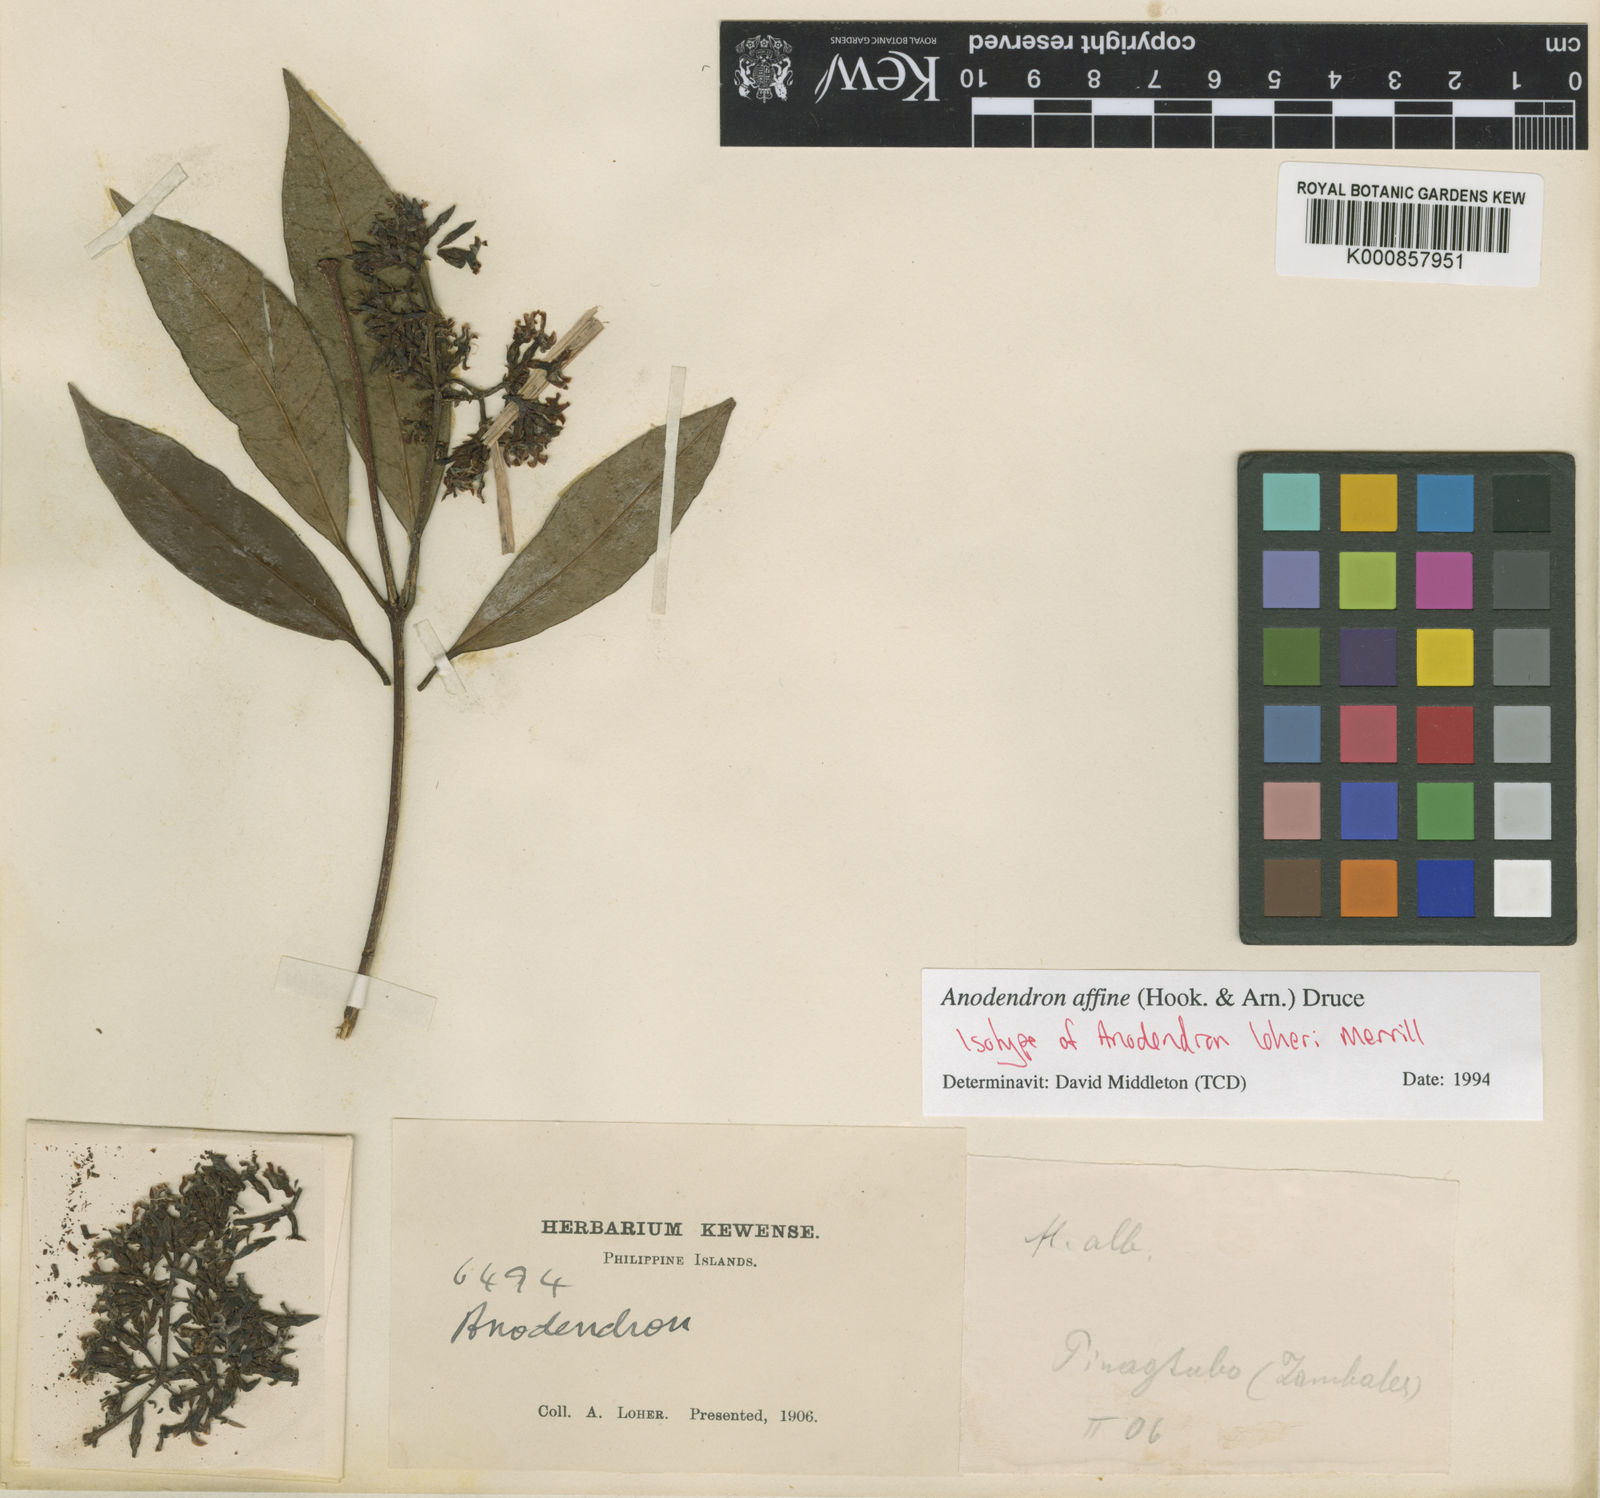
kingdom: Plantae
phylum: Tracheophyta
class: Magnoliopsida
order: Gentianales
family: Apocynaceae
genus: Anodendron
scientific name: Anodendron affine
